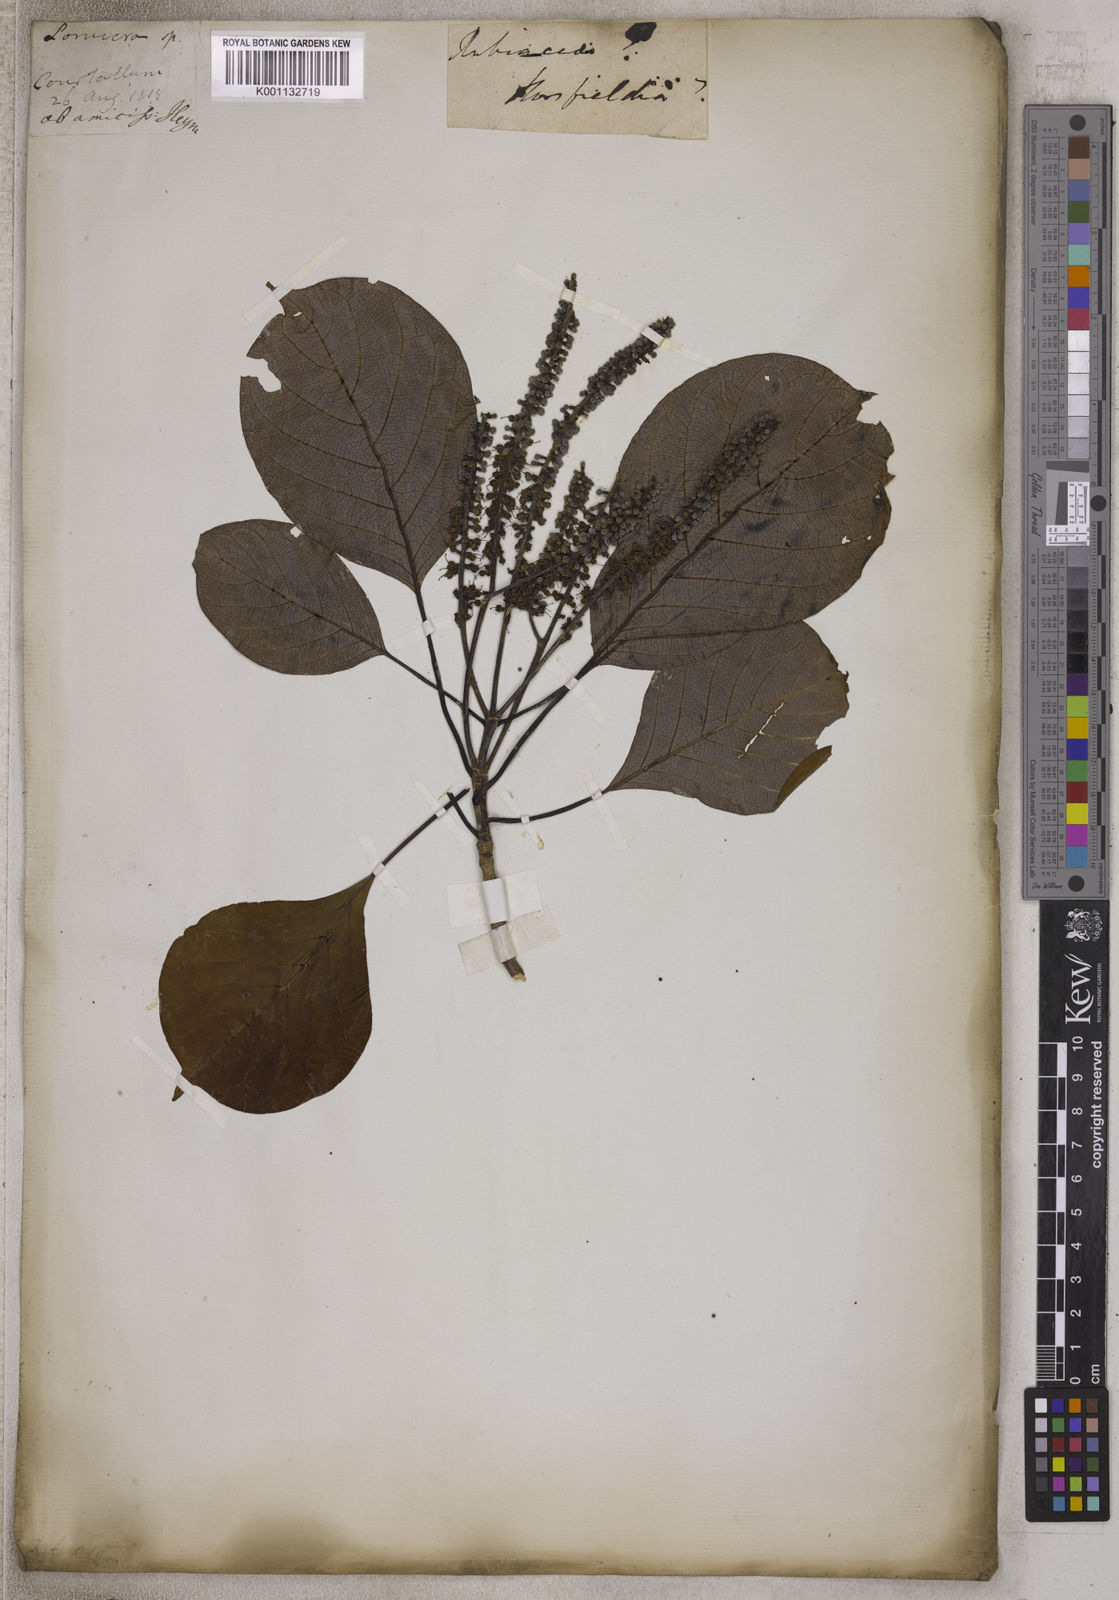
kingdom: Plantae
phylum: Tracheophyta
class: Magnoliopsida
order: Magnoliales
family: Myristicaceae
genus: Horsfieldia
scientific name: Horsfieldia
